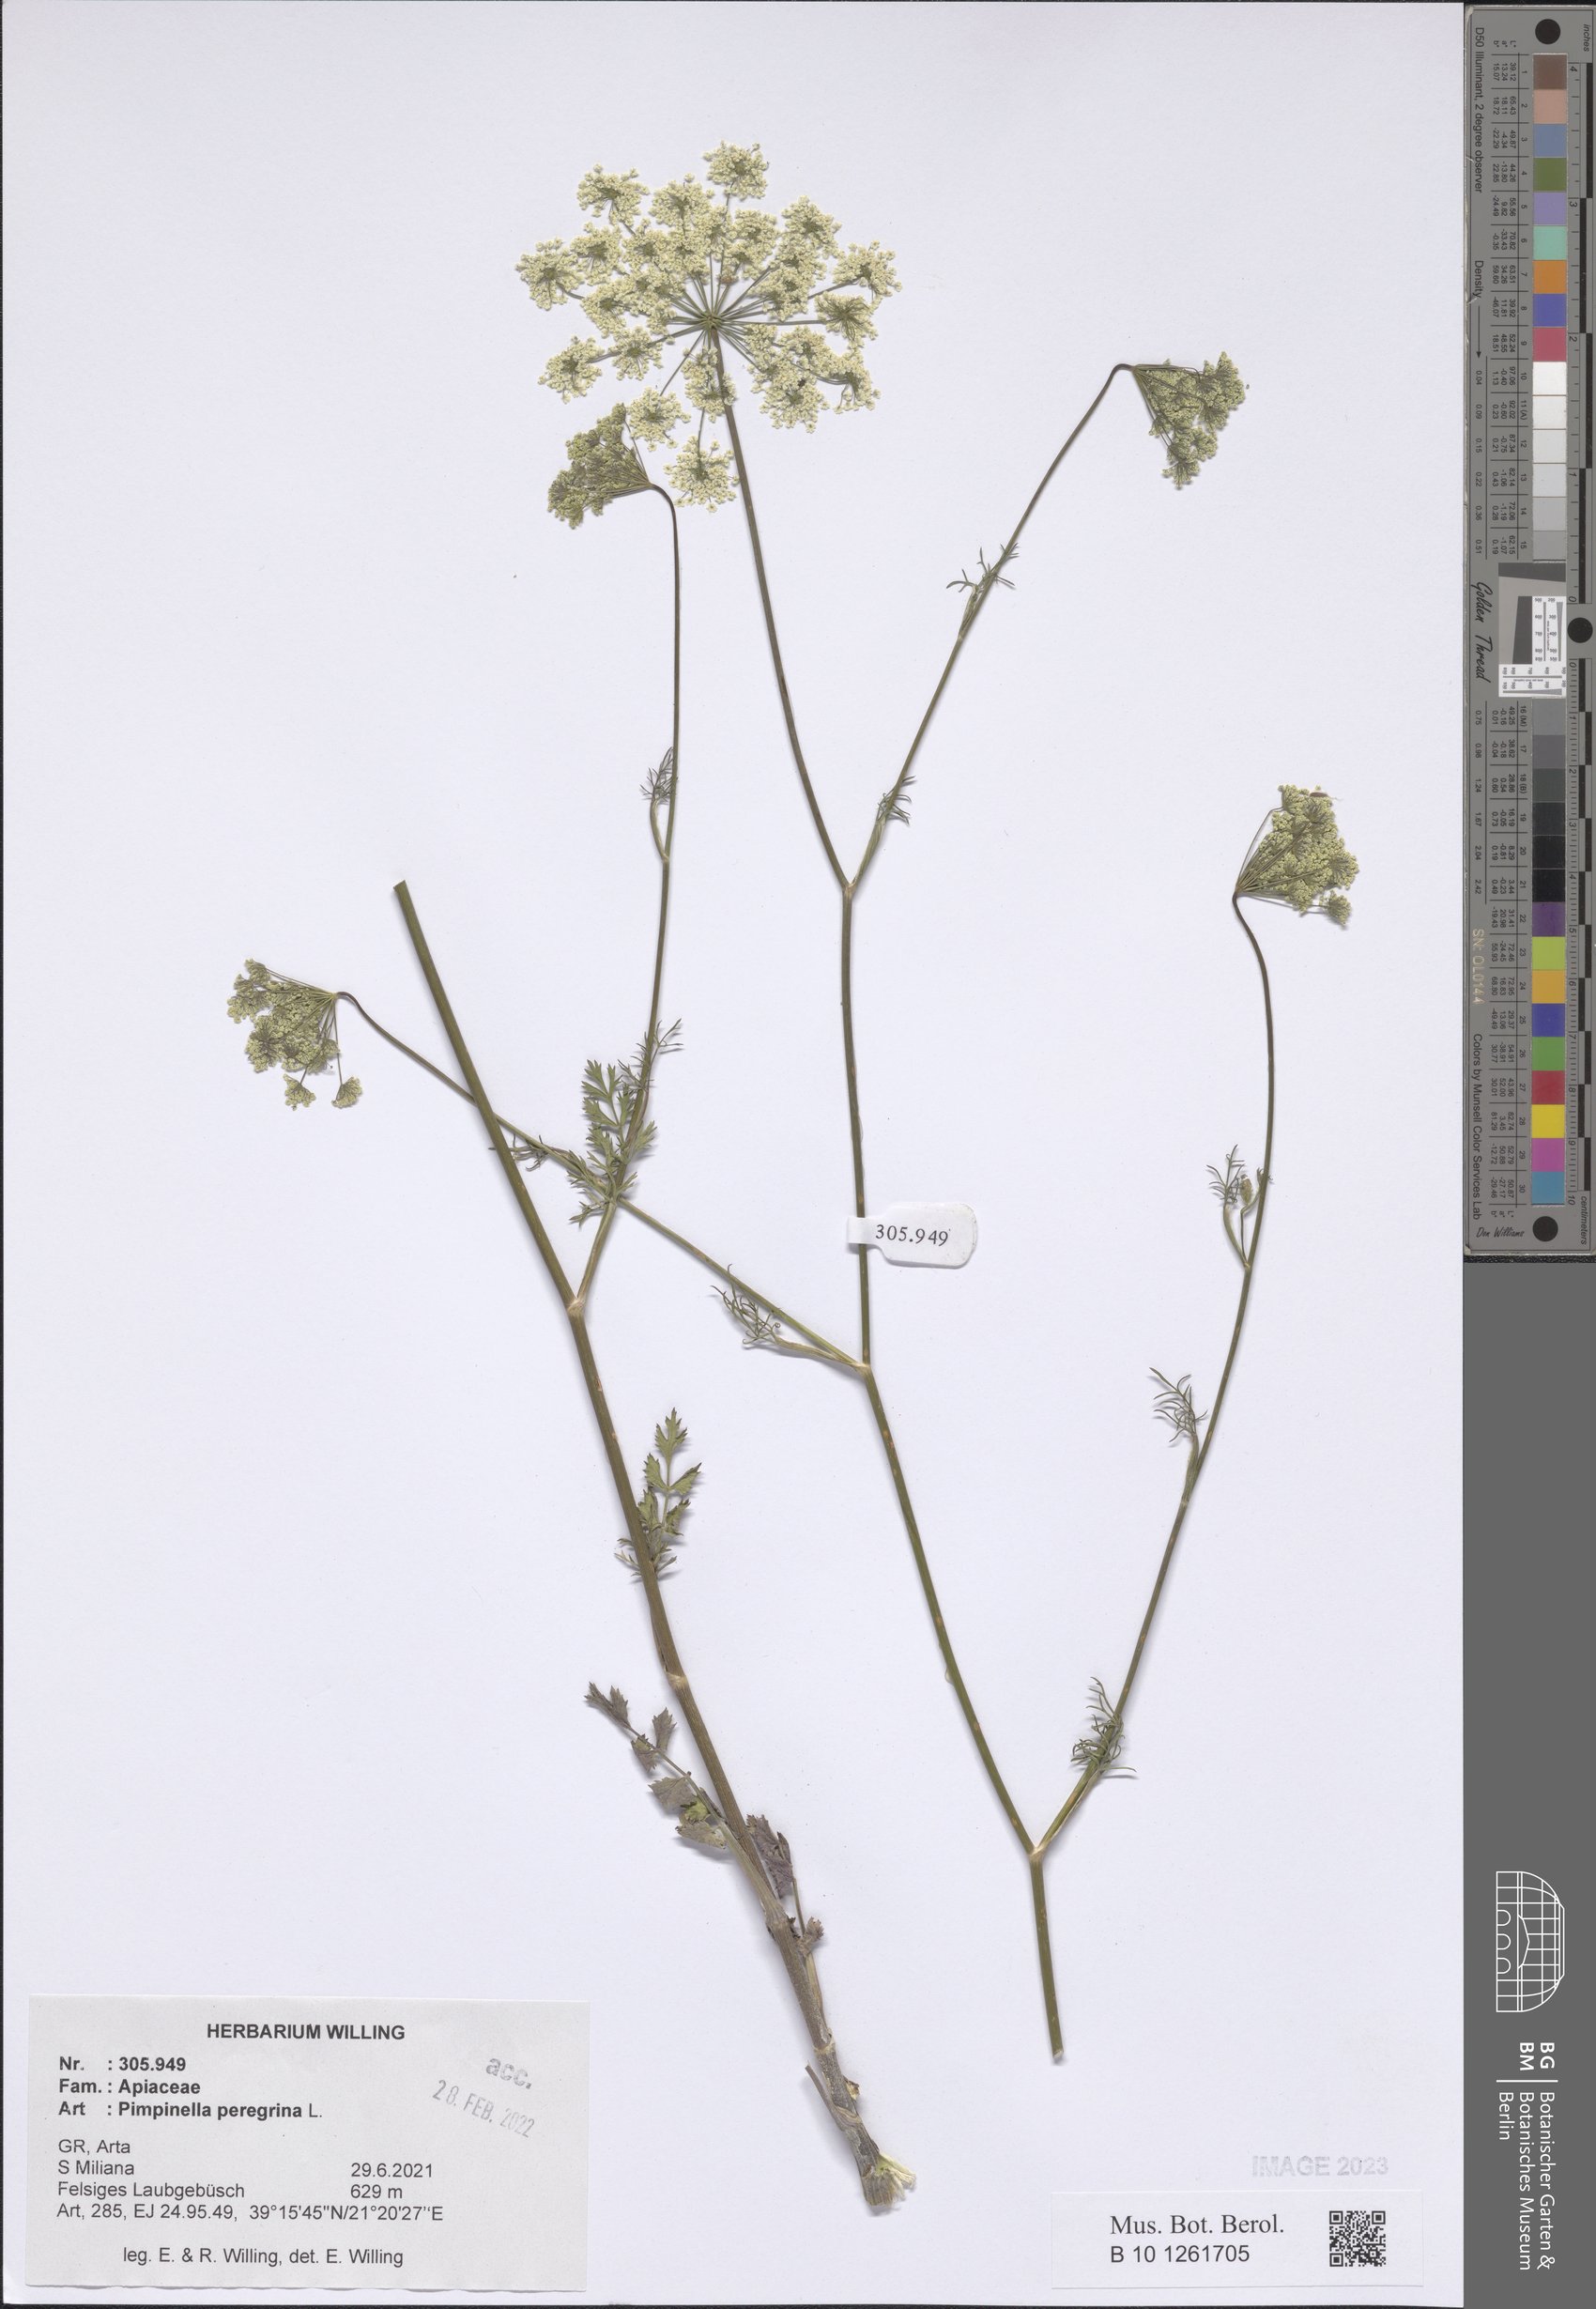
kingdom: Plantae
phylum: Tracheophyta
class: Magnoliopsida
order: Apiales
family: Apiaceae
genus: Pimpinella
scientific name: Pimpinella peregrina
